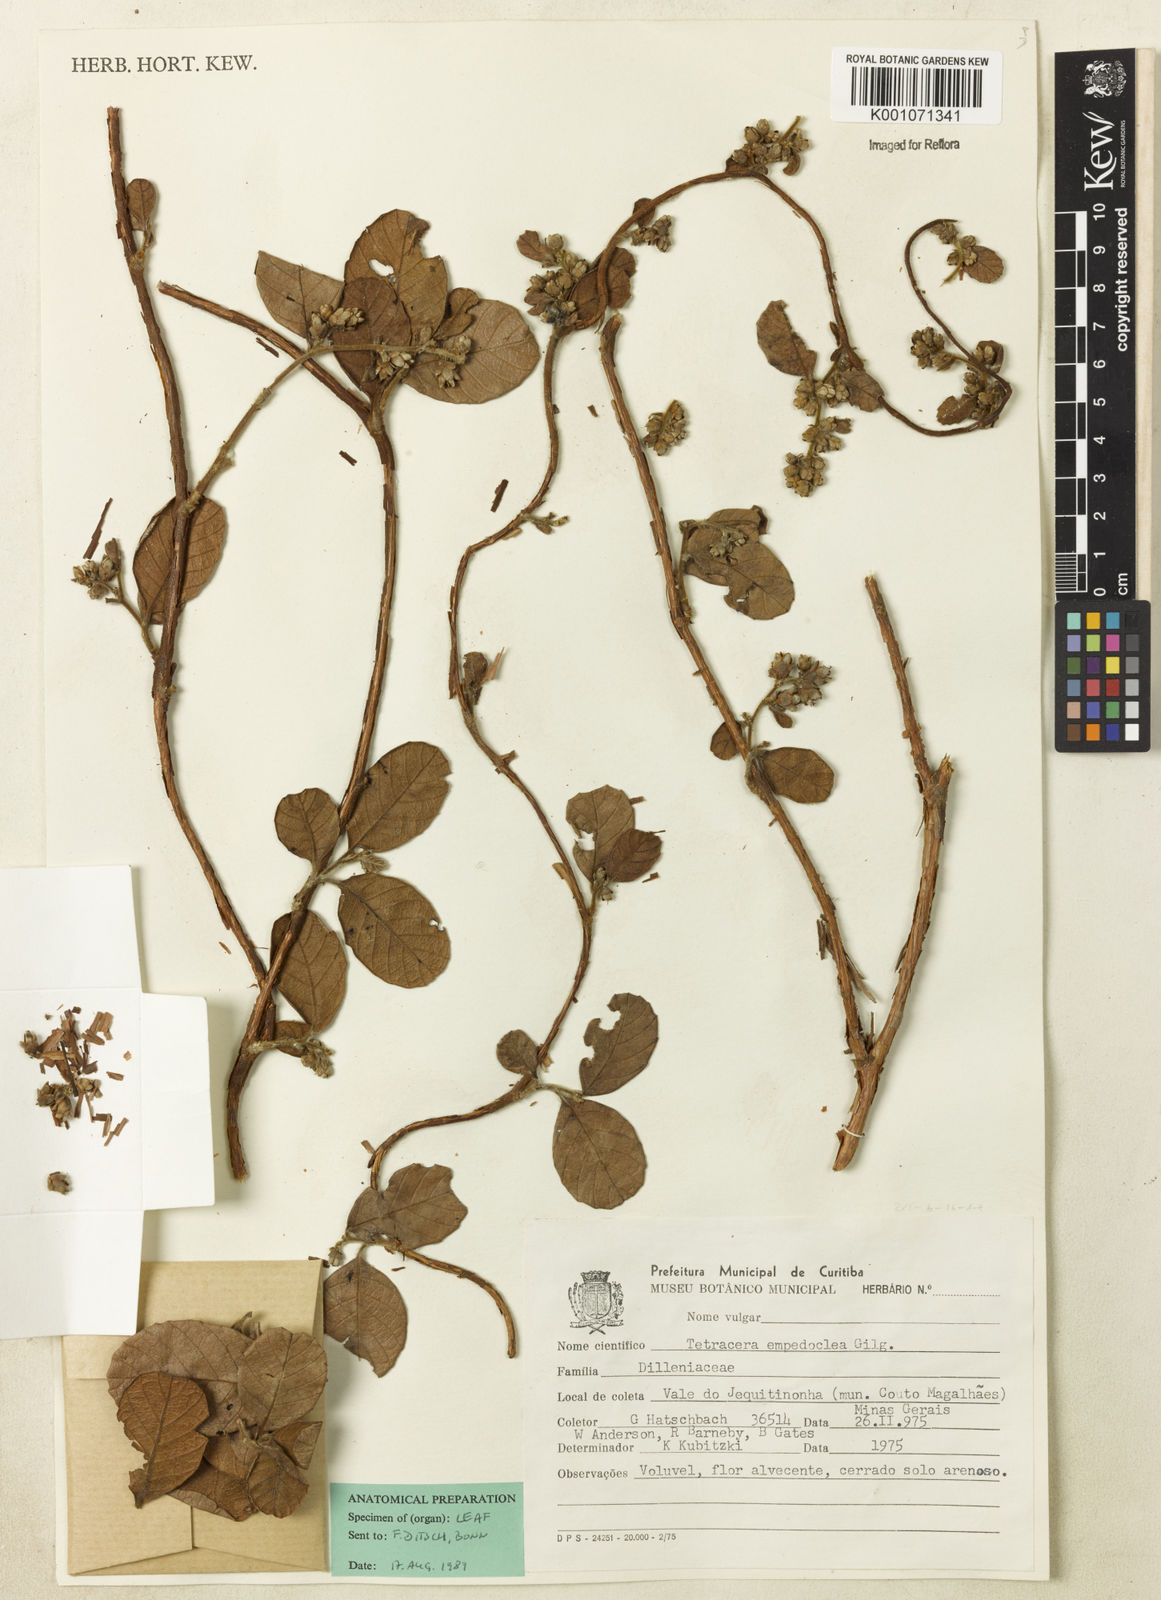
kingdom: Plantae
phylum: Tracheophyta
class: Magnoliopsida
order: Dilleniales
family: Dilleniaceae
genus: Tetracera
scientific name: Tetracera empedoclea
